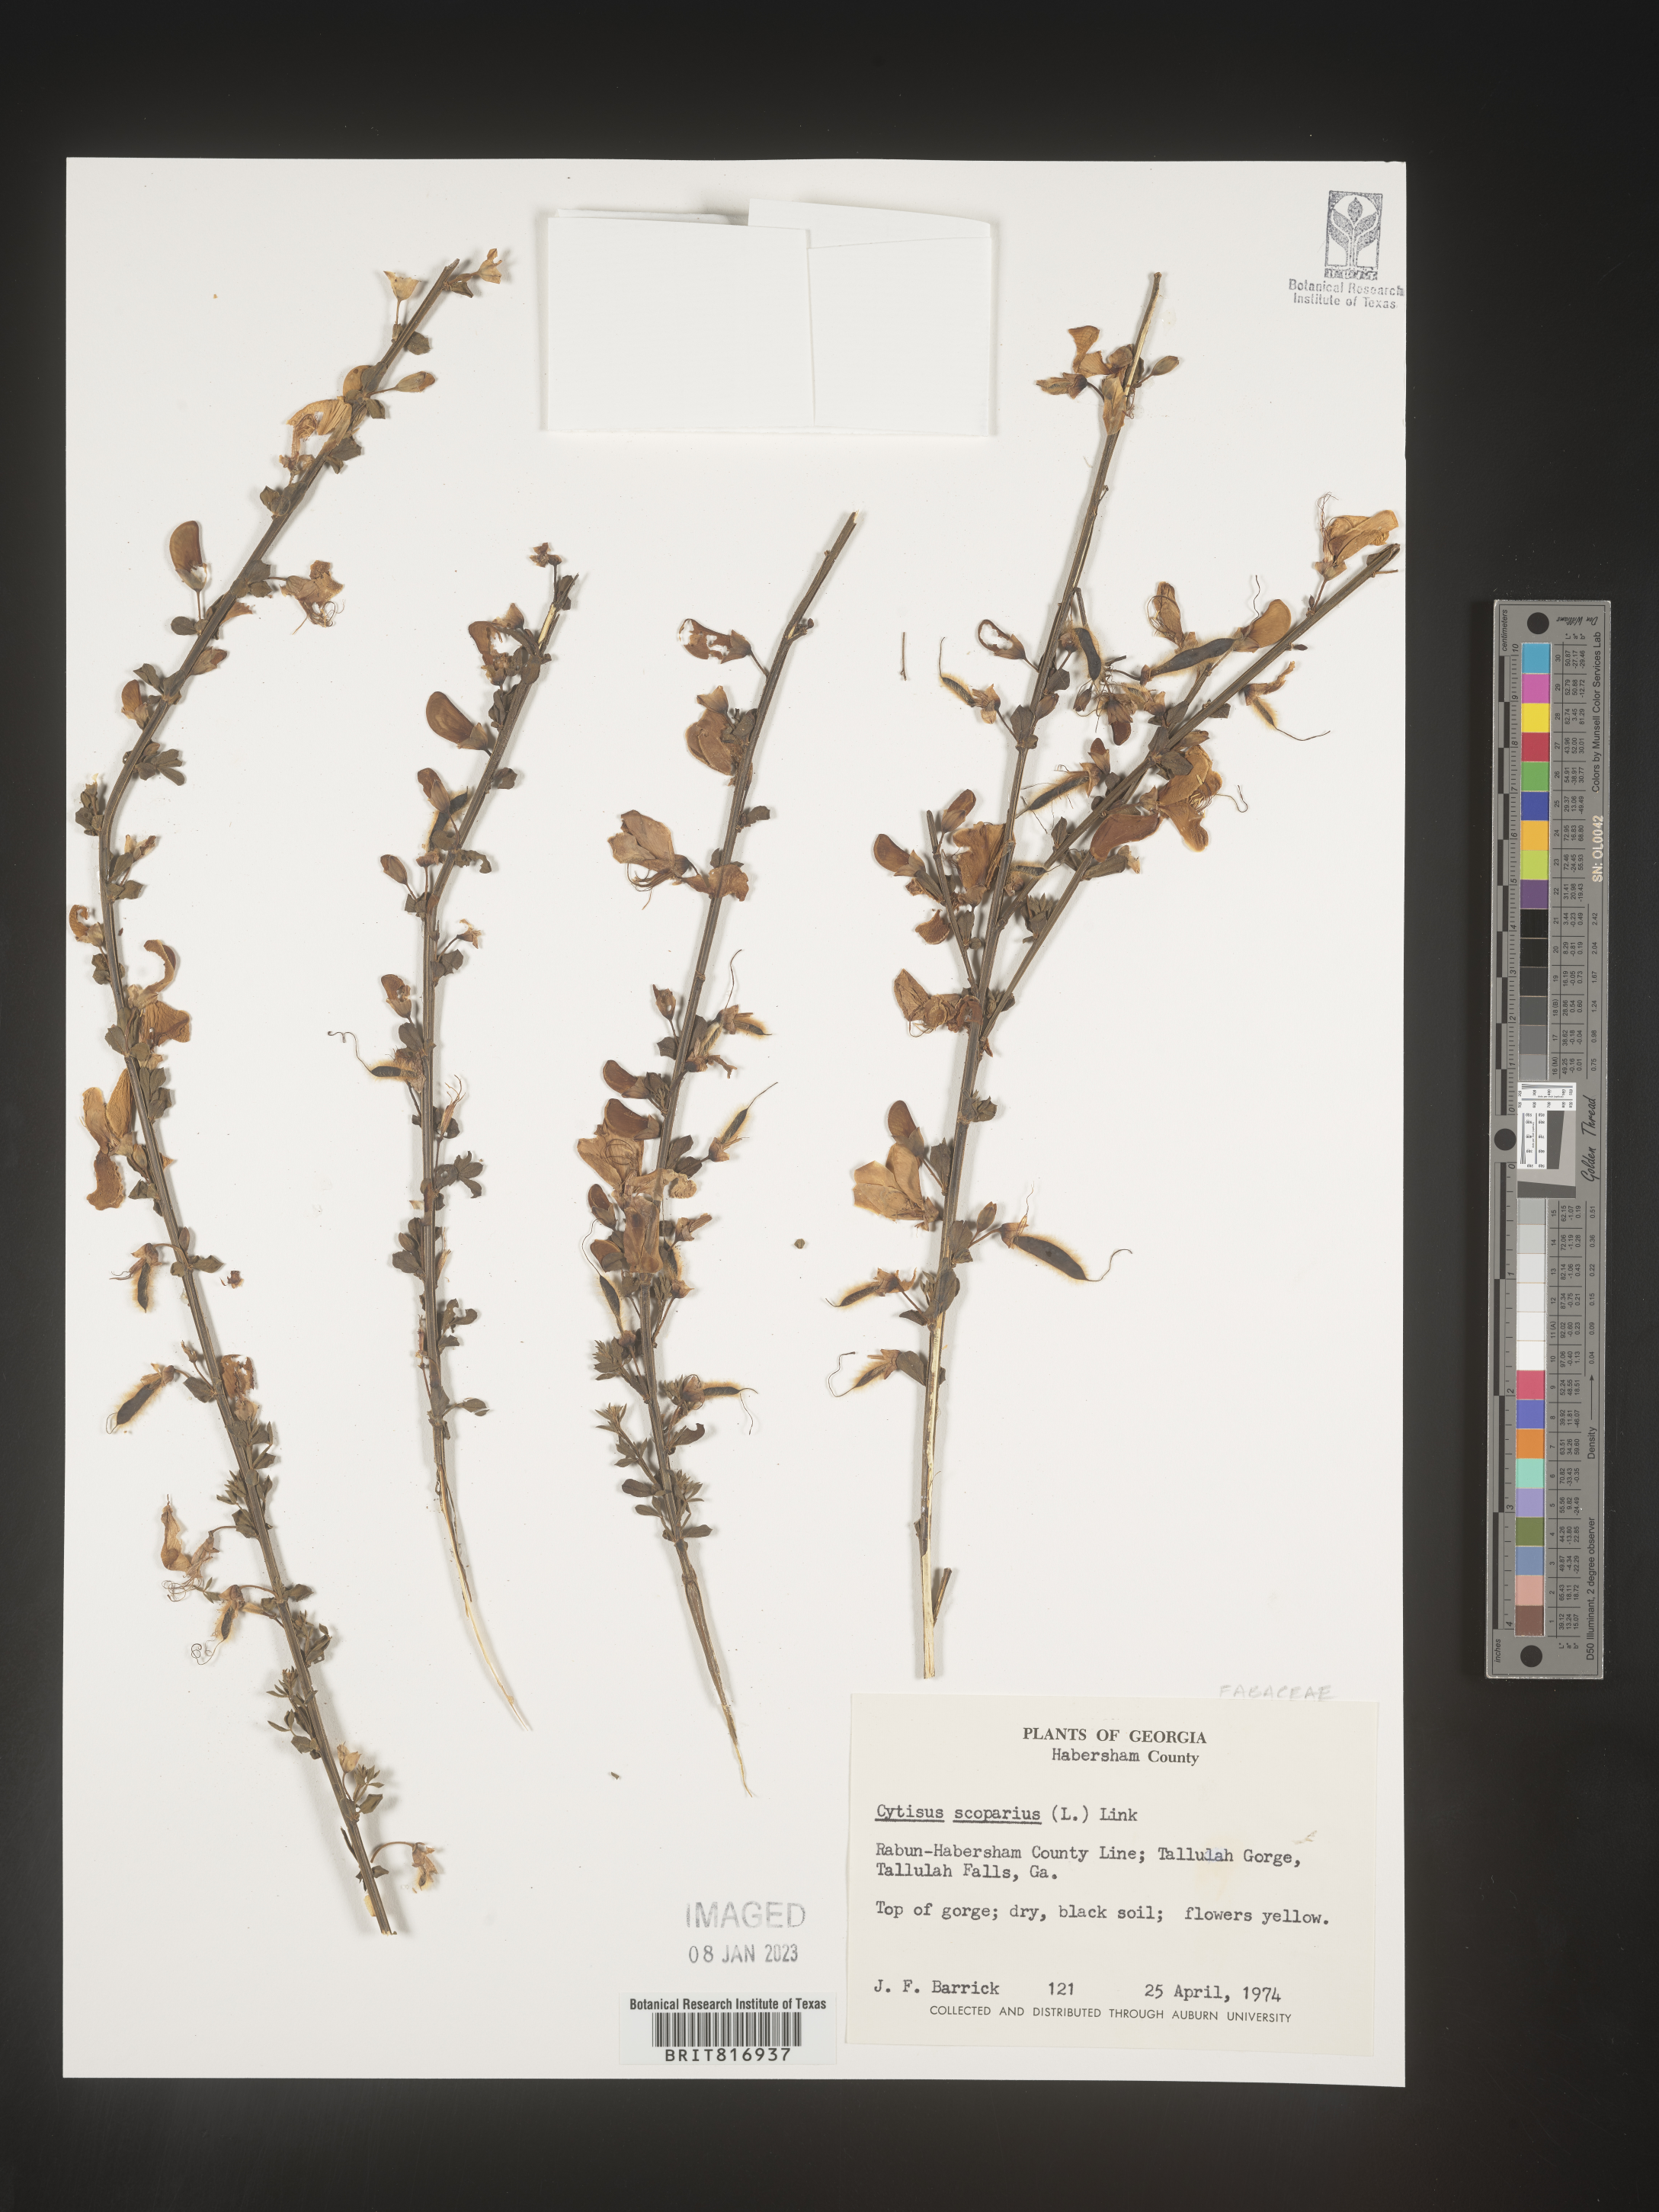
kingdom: Plantae
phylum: Tracheophyta
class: Magnoliopsida
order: Fabales
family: Fabaceae
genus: Cytisus
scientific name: Cytisus
